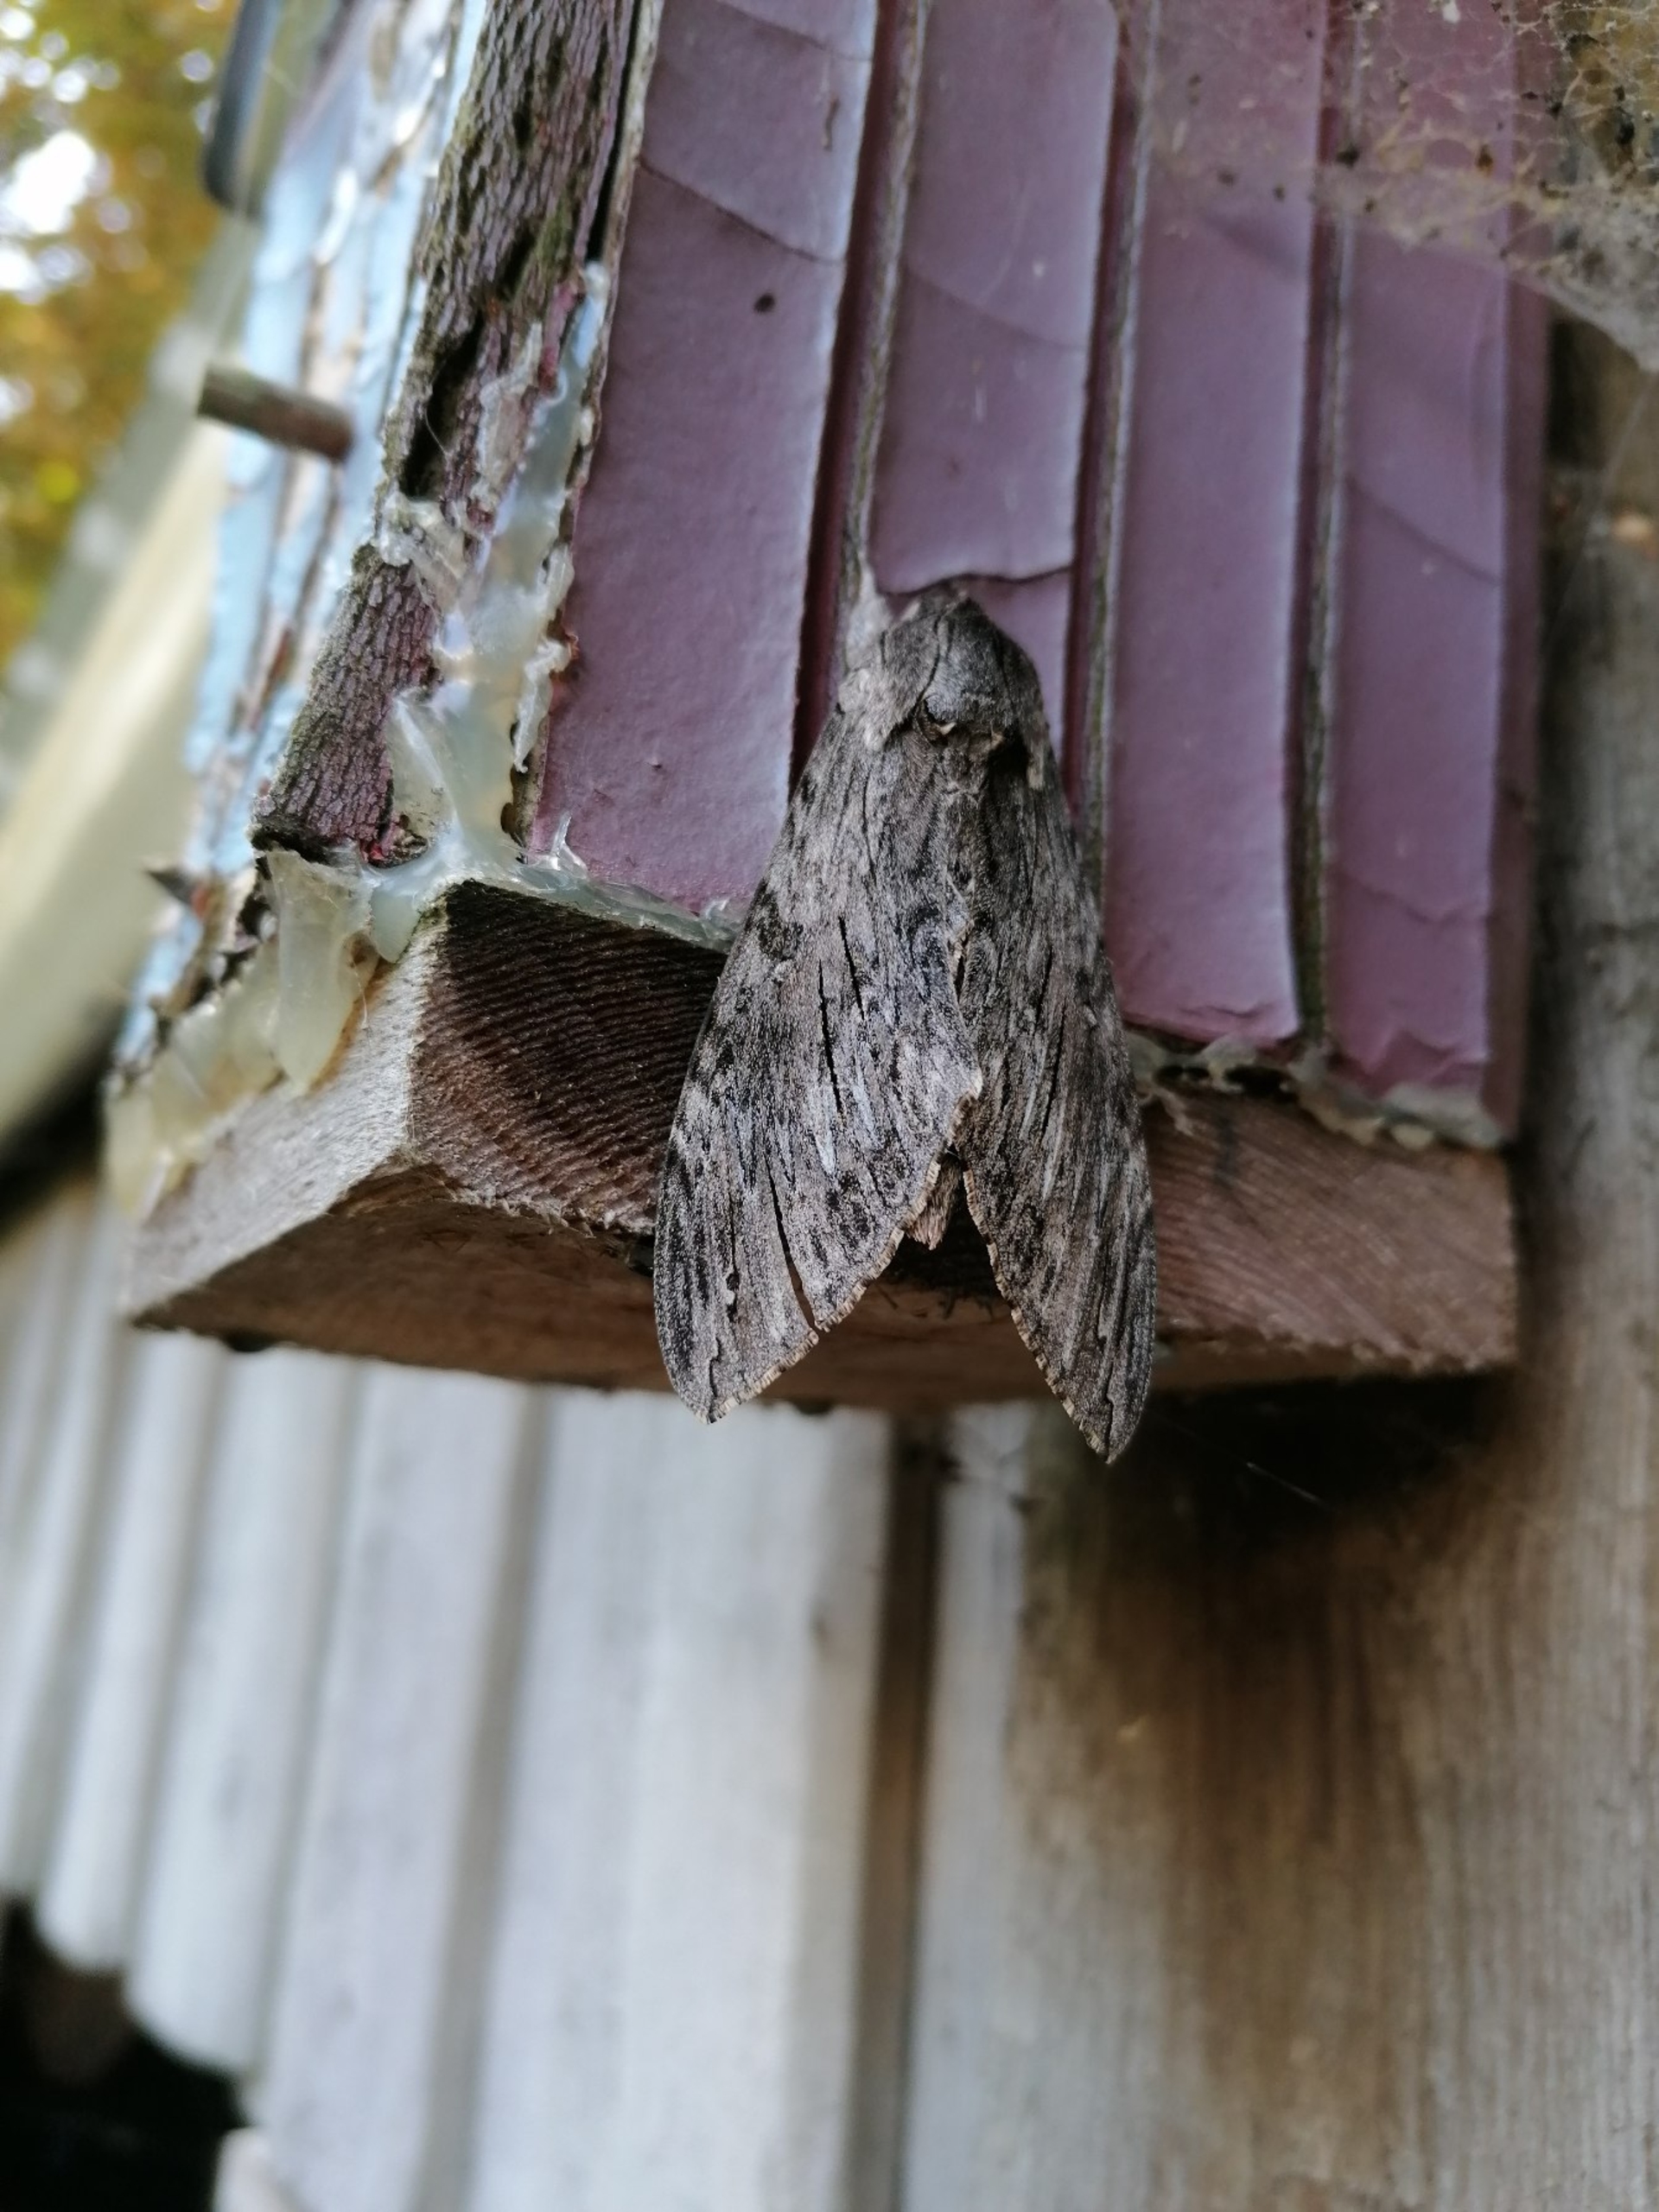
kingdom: Animalia
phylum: Arthropoda
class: Insecta
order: Lepidoptera
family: Sphingidae
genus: Agrius
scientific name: Agrius convolvuli
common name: Snerlesværmer
